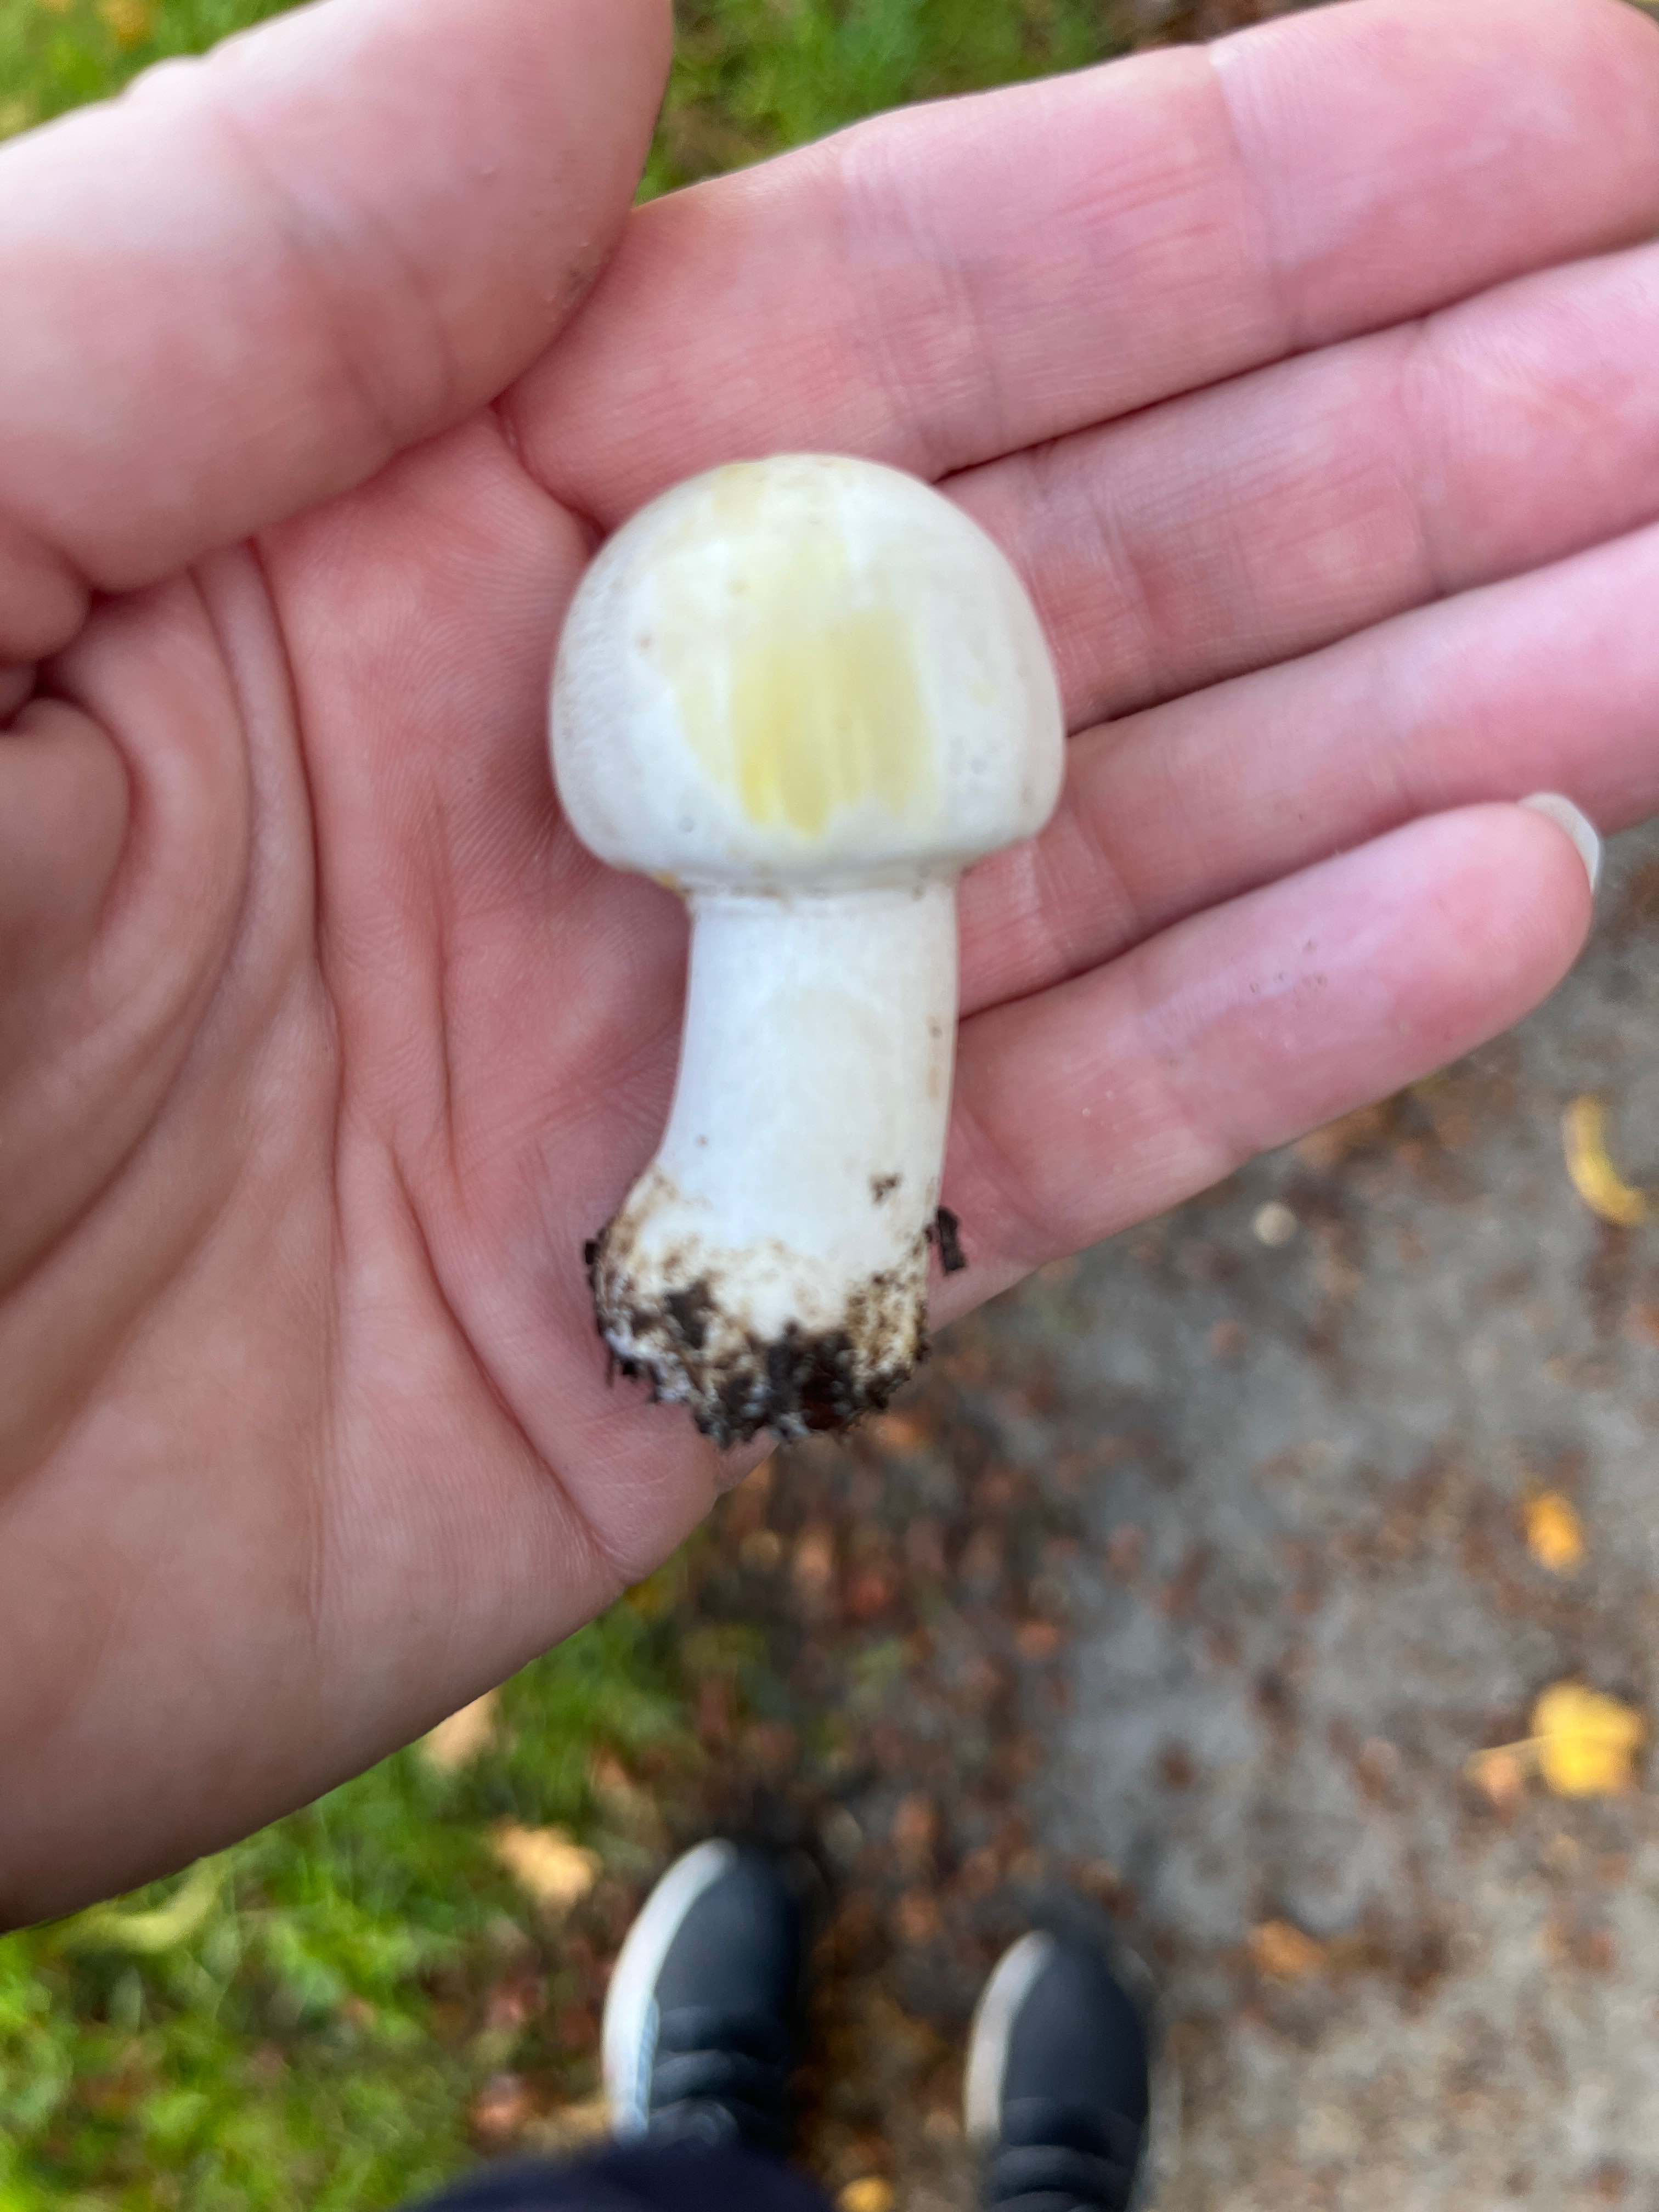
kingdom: Fungi
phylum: Basidiomycota
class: Agaricomycetes
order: Agaricales
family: Agaricaceae
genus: Agaricus
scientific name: Agaricus xanthodermus
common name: karbol-champignon
